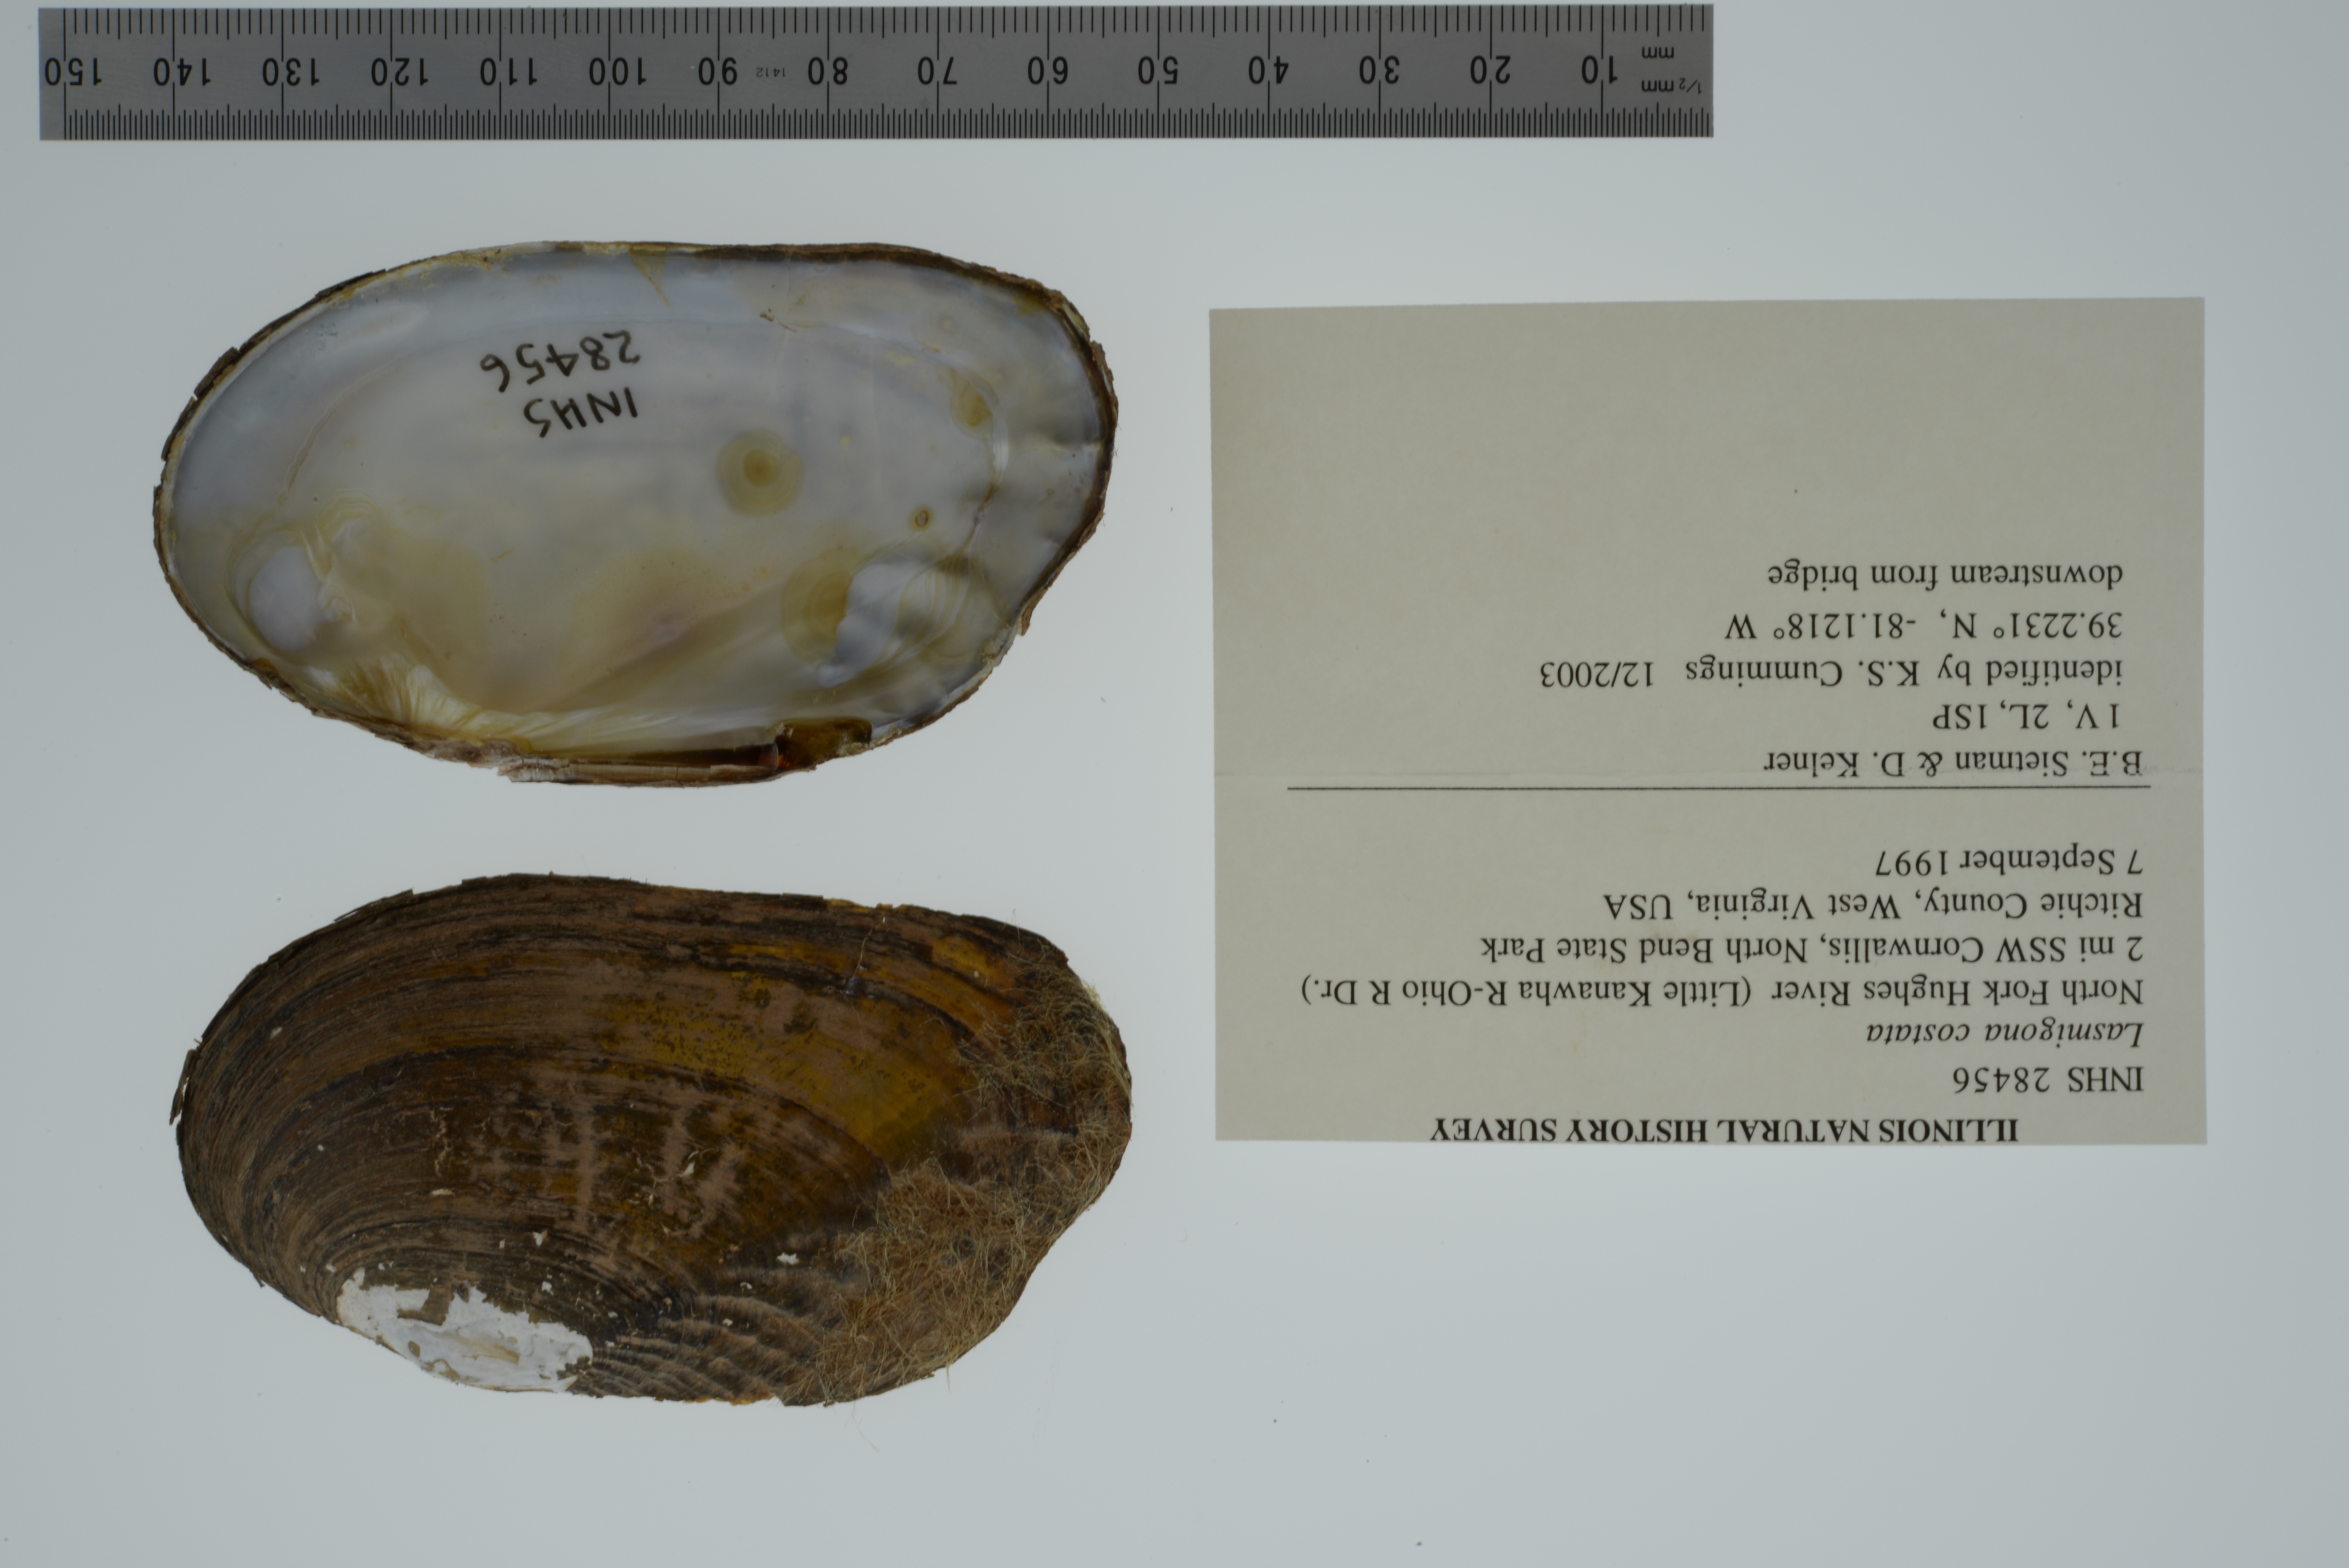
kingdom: Animalia
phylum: Mollusca
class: Bivalvia
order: Unionida
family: Unionidae
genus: Lasmigona
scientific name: Lasmigona costata
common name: Flutedshell
